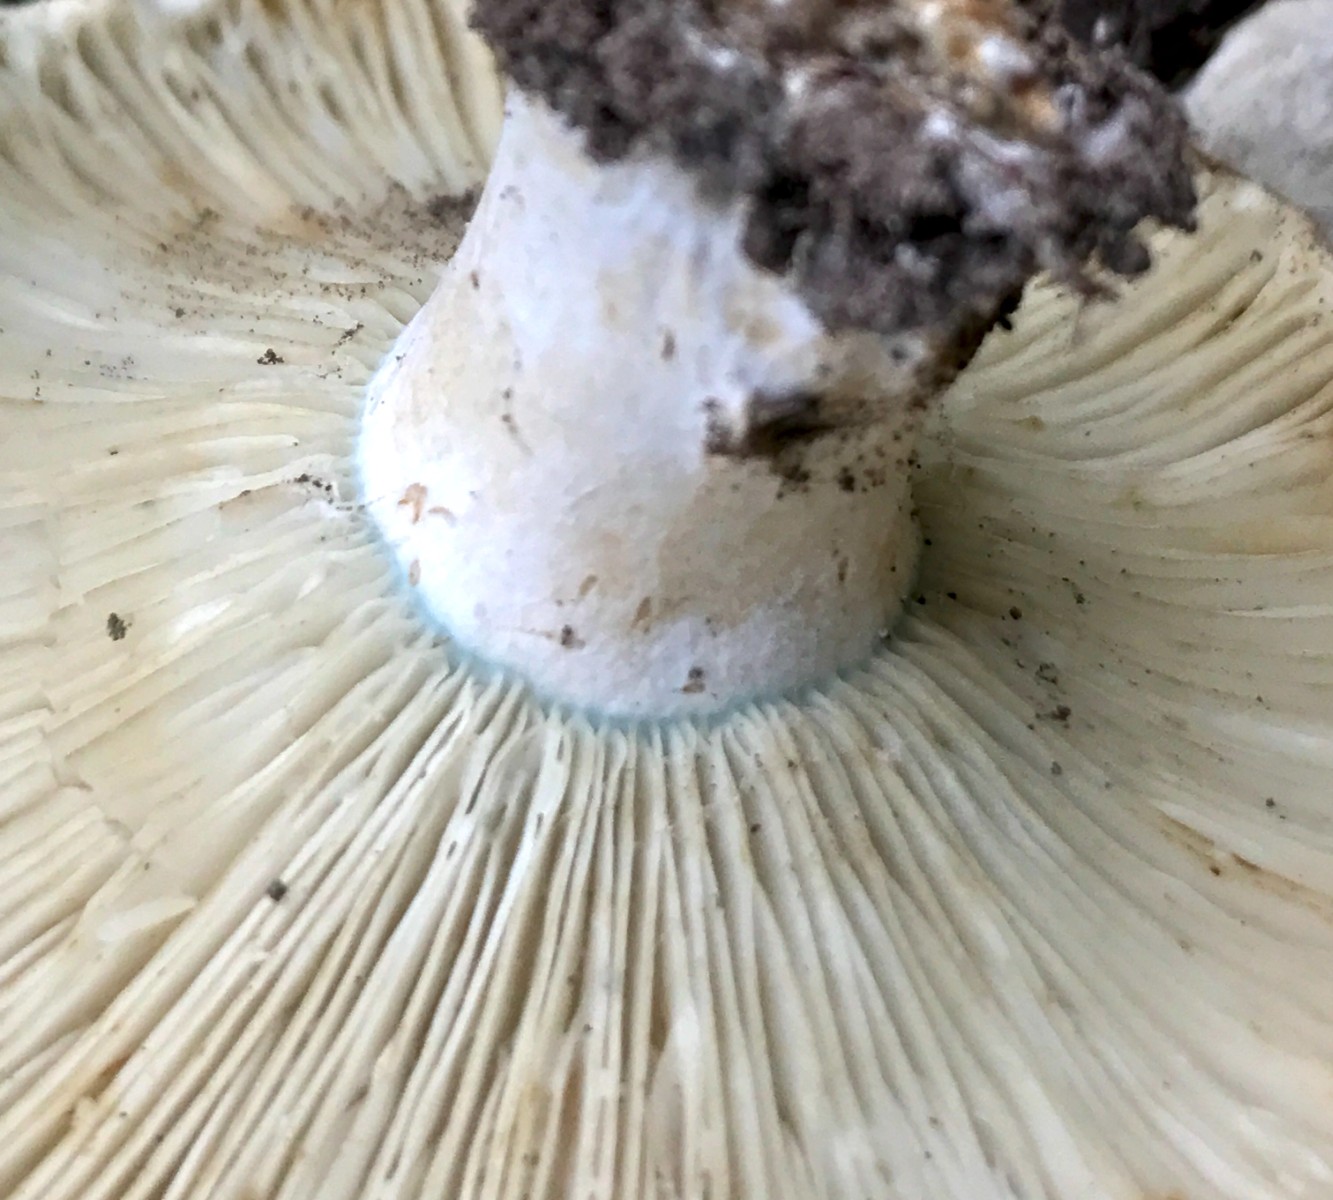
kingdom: Fungi
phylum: Basidiomycota
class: Agaricomycetes
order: Russulales
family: Russulaceae
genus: Russula
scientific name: Russula chloroides
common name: grønhalset tragt-skørhat
